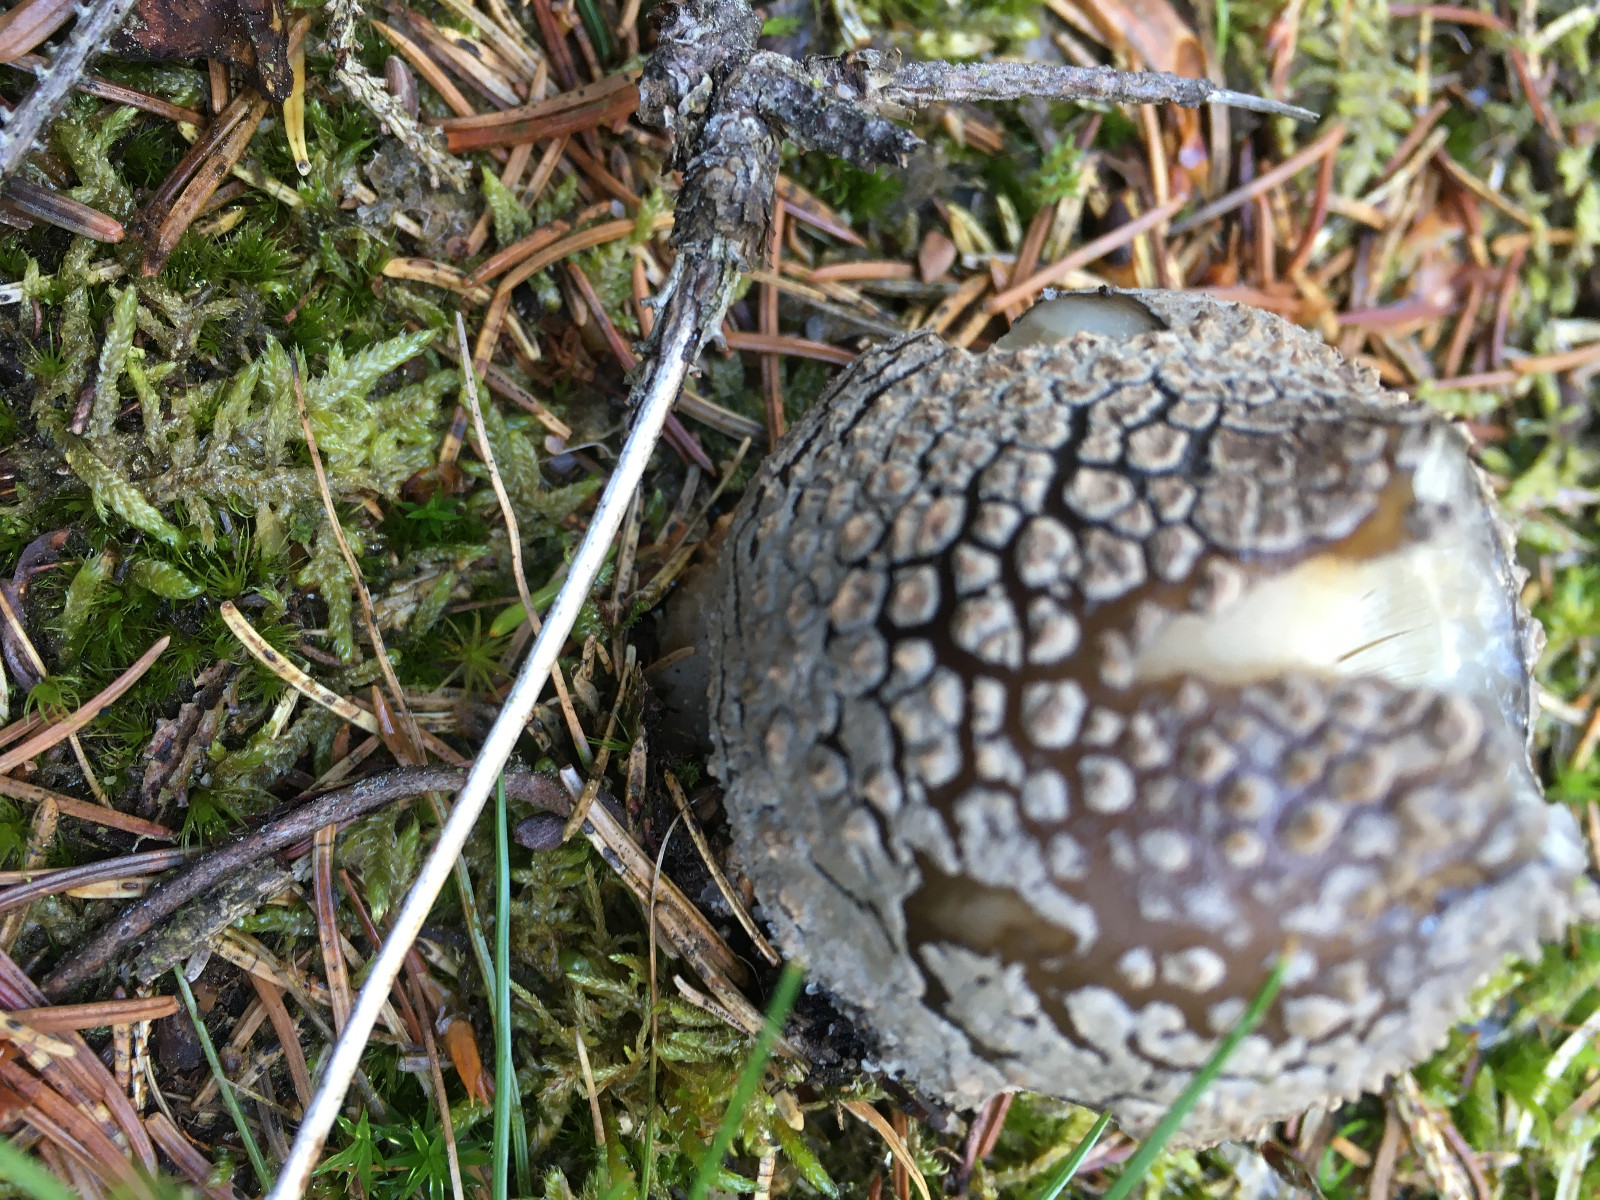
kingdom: Fungi
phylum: Basidiomycota
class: Agaricomycetes
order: Agaricales
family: Amanitaceae
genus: Amanita
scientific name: Amanita
